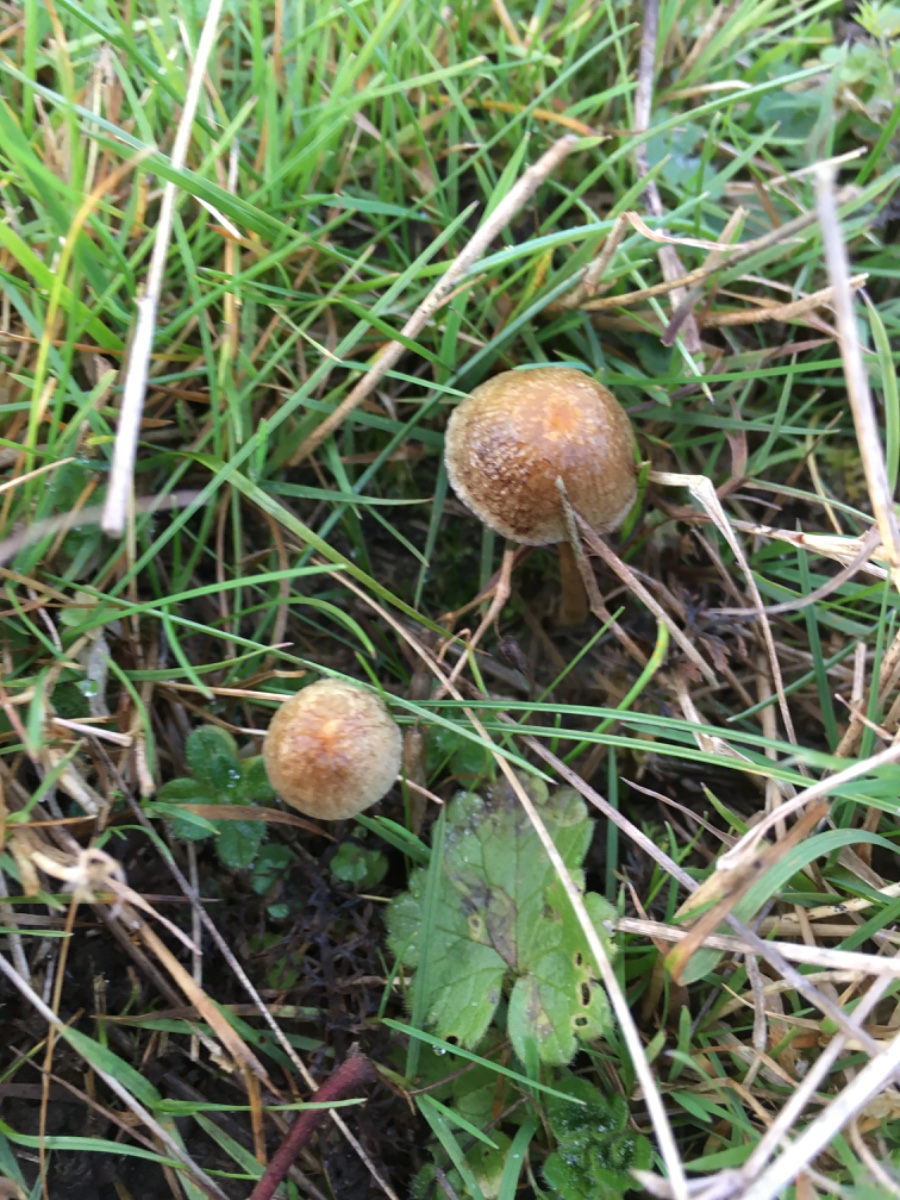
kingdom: Fungi
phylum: Basidiomycota
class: Agaricomycetes
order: Agaricales
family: Strophariaceae
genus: Protostropharia
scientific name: Protostropharia
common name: bredblad
